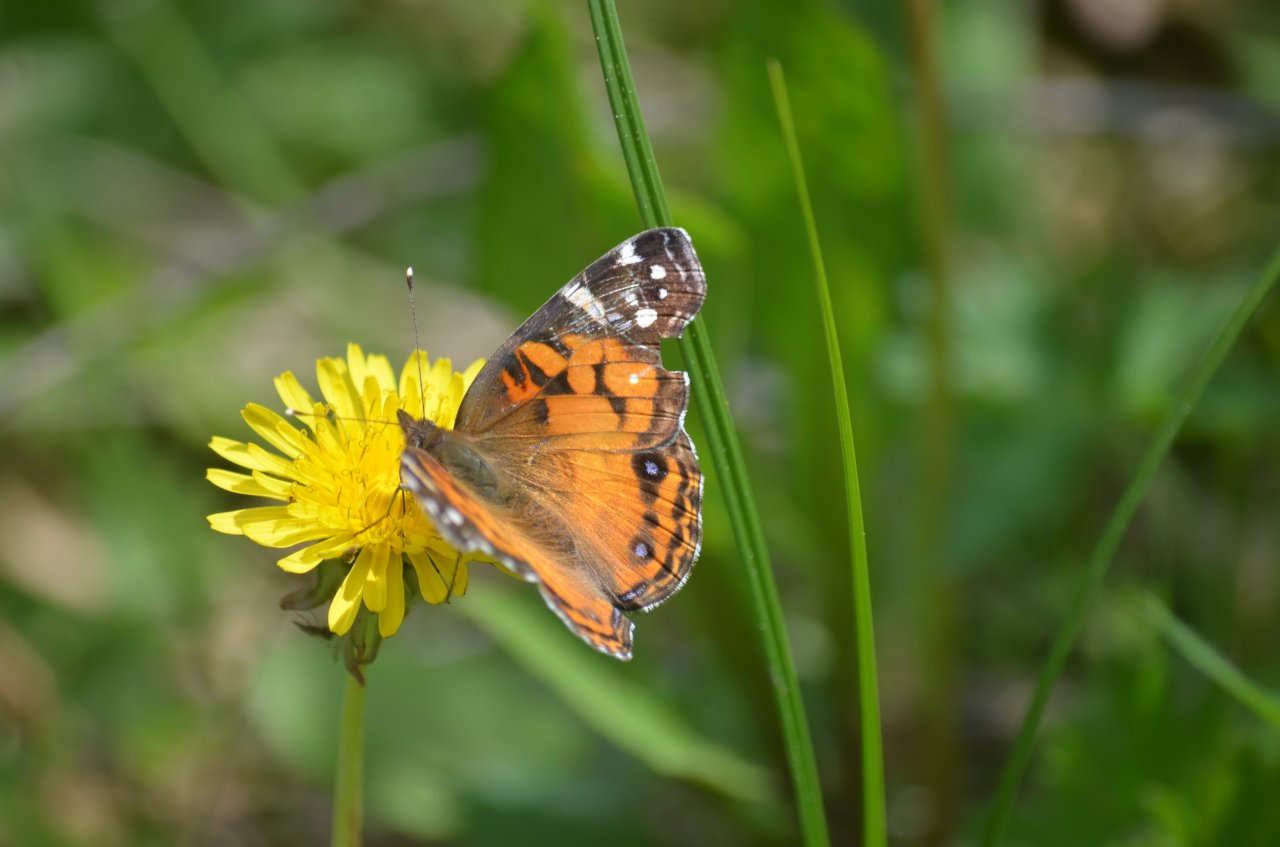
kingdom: Animalia
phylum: Arthropoda
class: Insecta
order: Lepidoptera
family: Nymphalidae
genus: Vanessa
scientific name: Vanessa virginiensis
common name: American Lady
